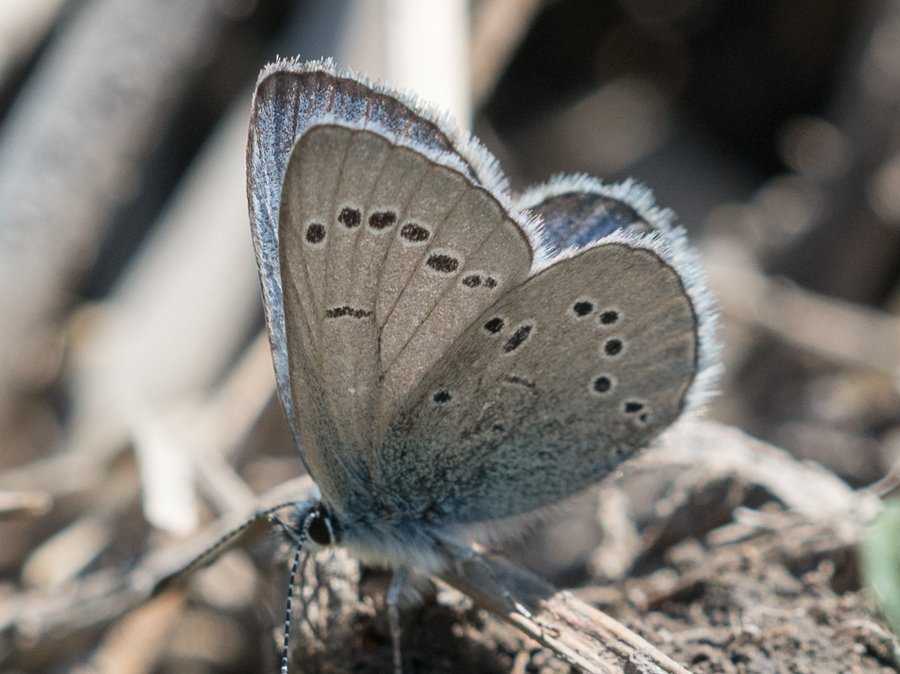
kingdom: Animalia
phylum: Arthropoda
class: Insecta
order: Lepidoptera
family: Lycaenidae
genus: Glaucopsyche
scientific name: Glaucopsyche lygdamus
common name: Silvery Blue
